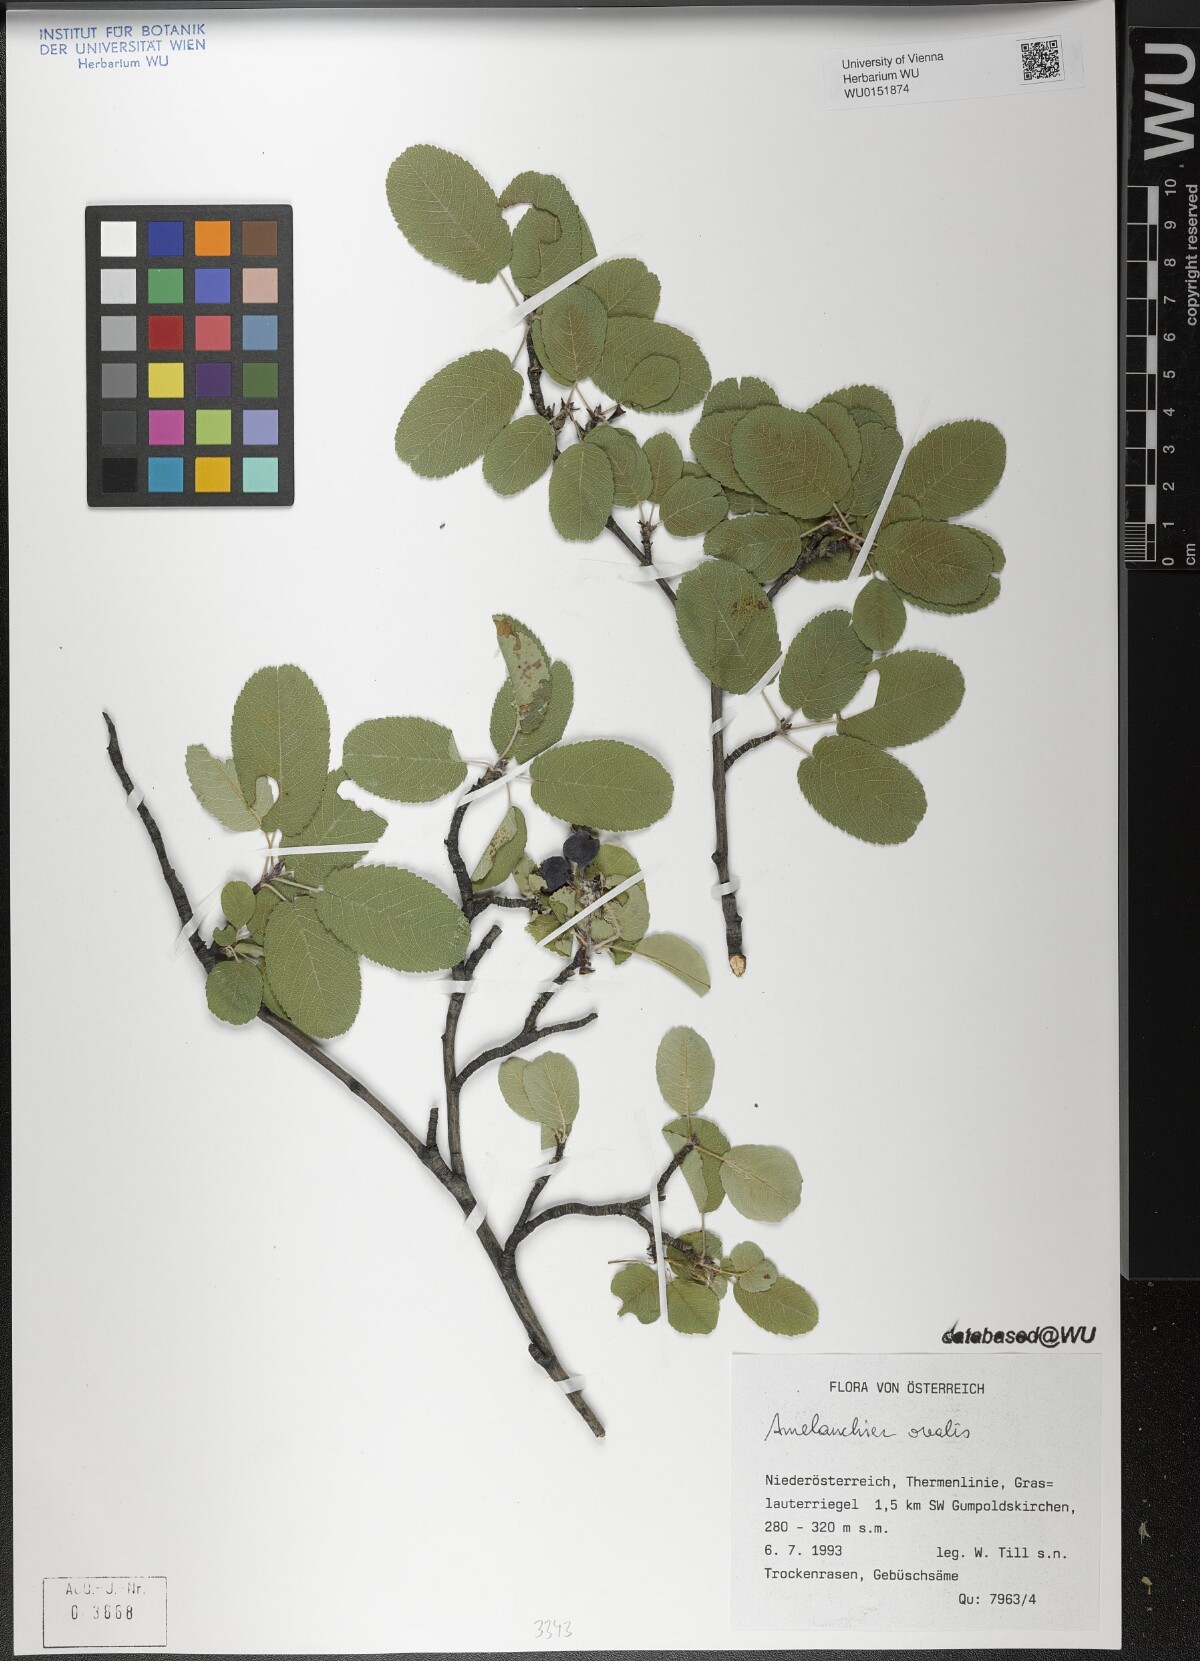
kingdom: Plantae
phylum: Tracheophyta
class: Magnoliopsida
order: Rosales
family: Rosaceae
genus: Amelanchier
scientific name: Amelanchier ovalis
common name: Serviceberry
